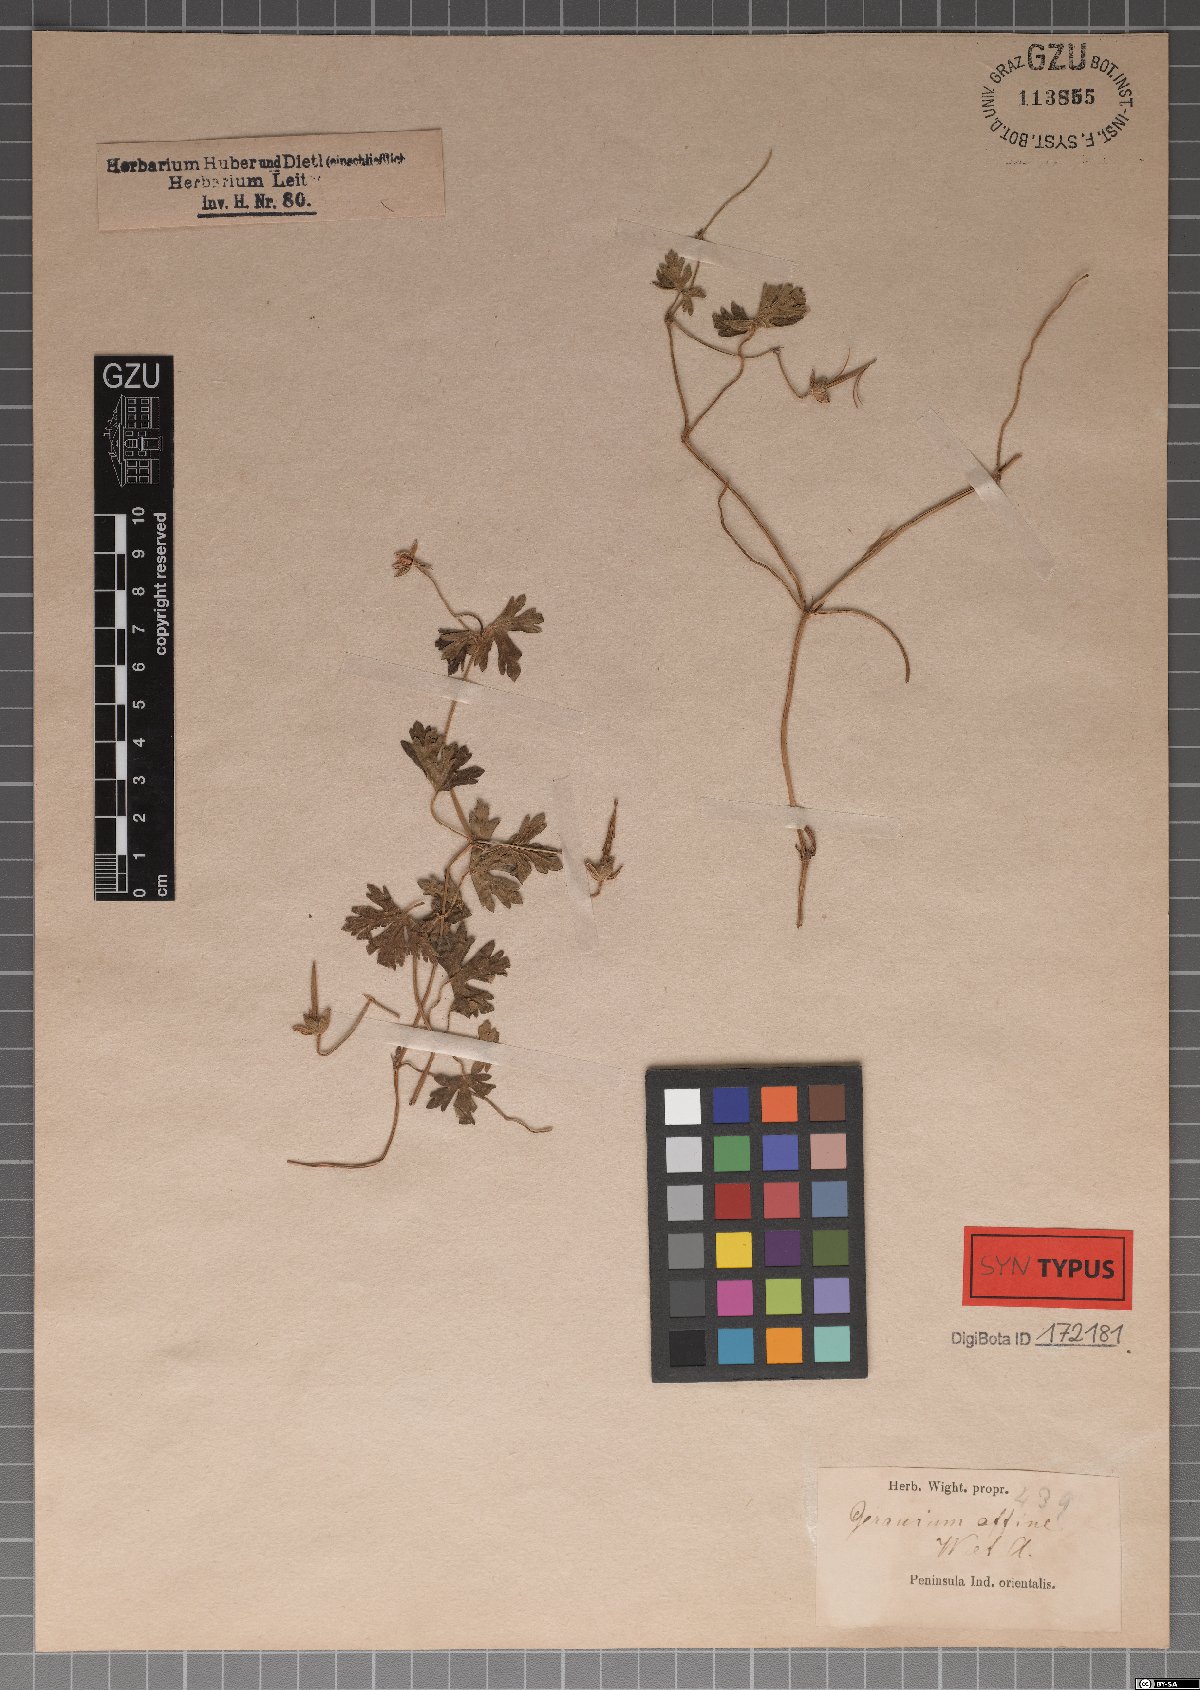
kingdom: Plantae
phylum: Tracheophyta
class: Magnoliopsida
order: Geraniales
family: Geraniaceae
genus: Geranium
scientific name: Geranium arnottianum
